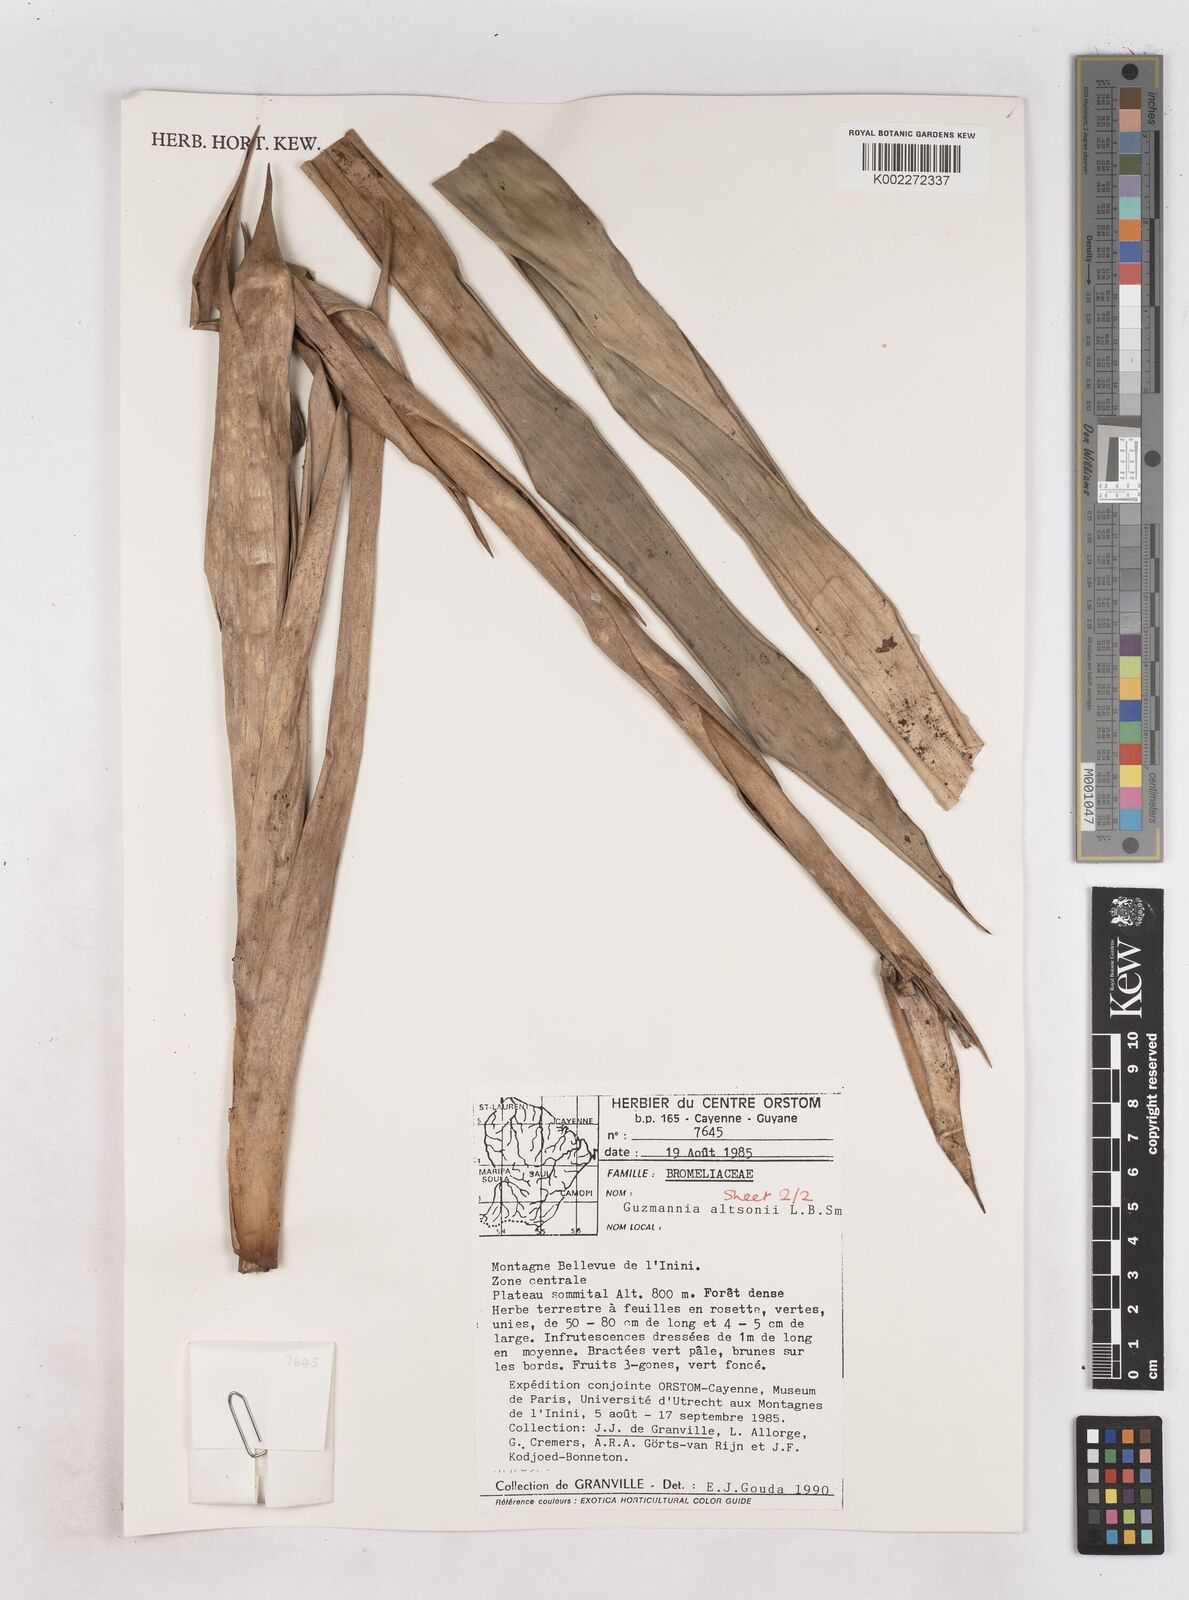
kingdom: Plantae
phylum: Tracheophyta
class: Liliopsida
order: Poales
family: Bromeliaceae
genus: Guzmania
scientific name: Guzmania altsonii
